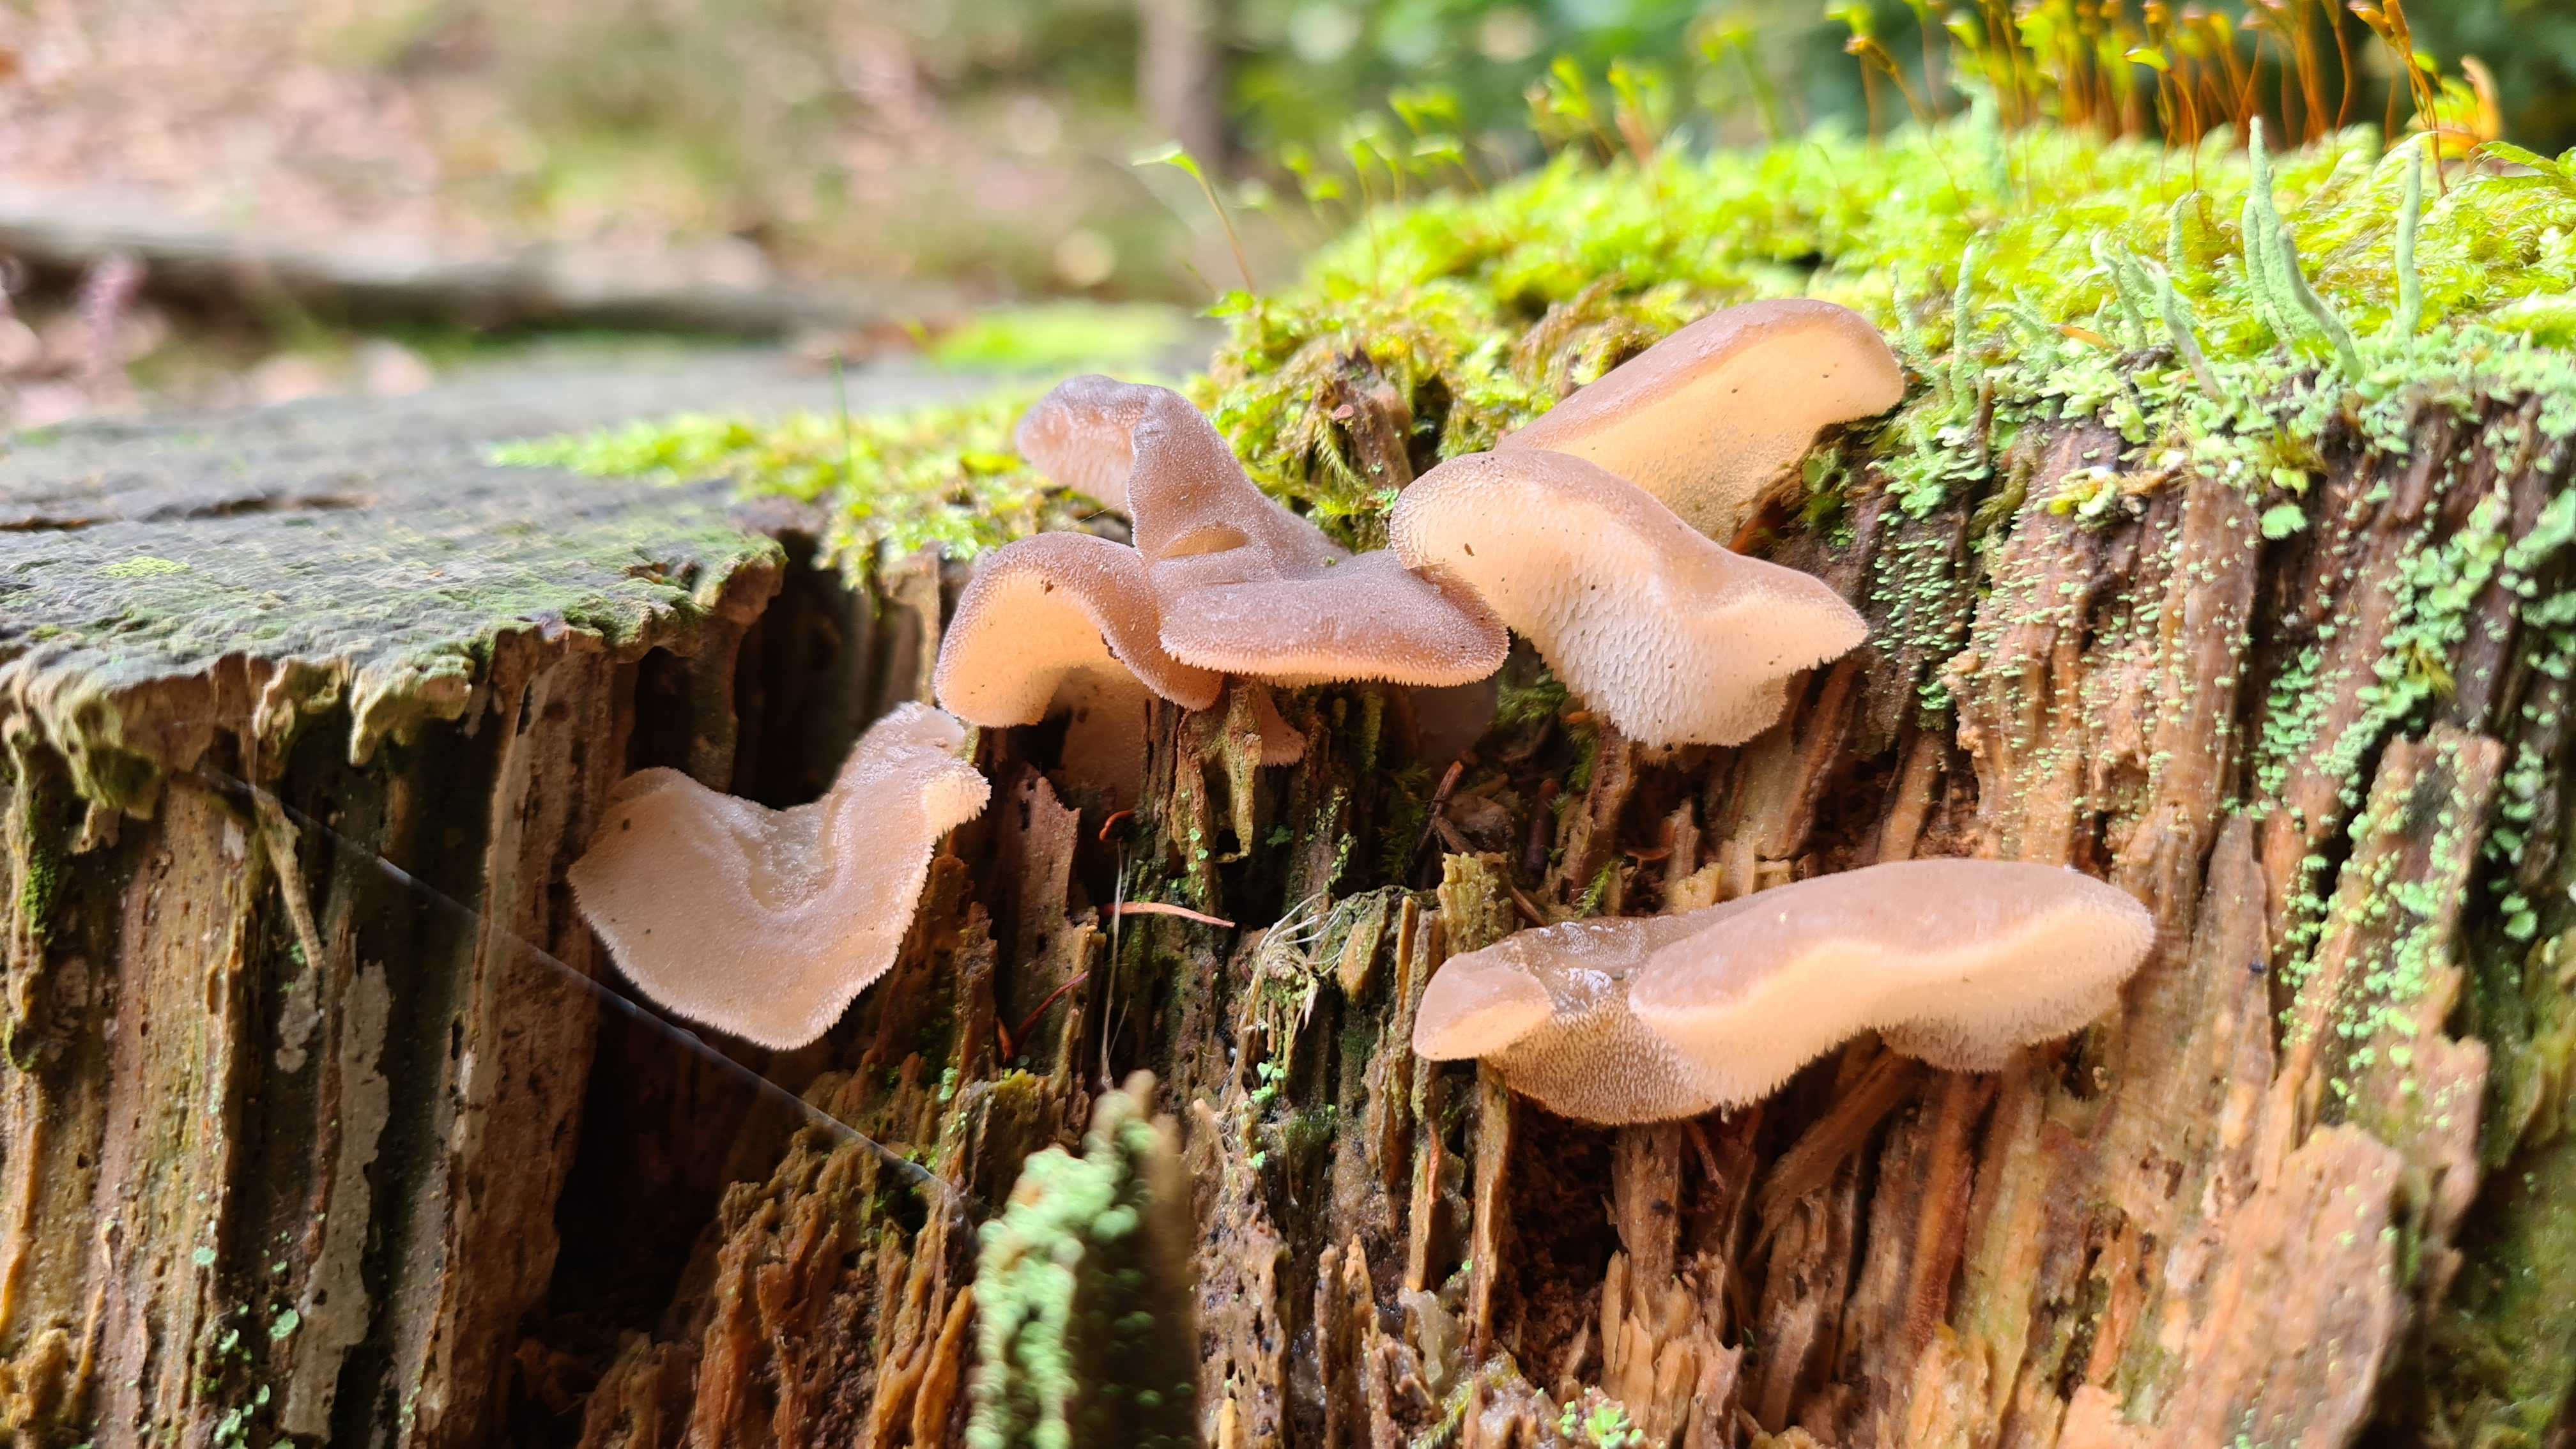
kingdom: Fungi
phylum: Basidiomycota
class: Agaricomycetes
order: Auriculariales
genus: Pseudohydnum
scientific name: Pseudohydnum gelatinosum
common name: bævretand
